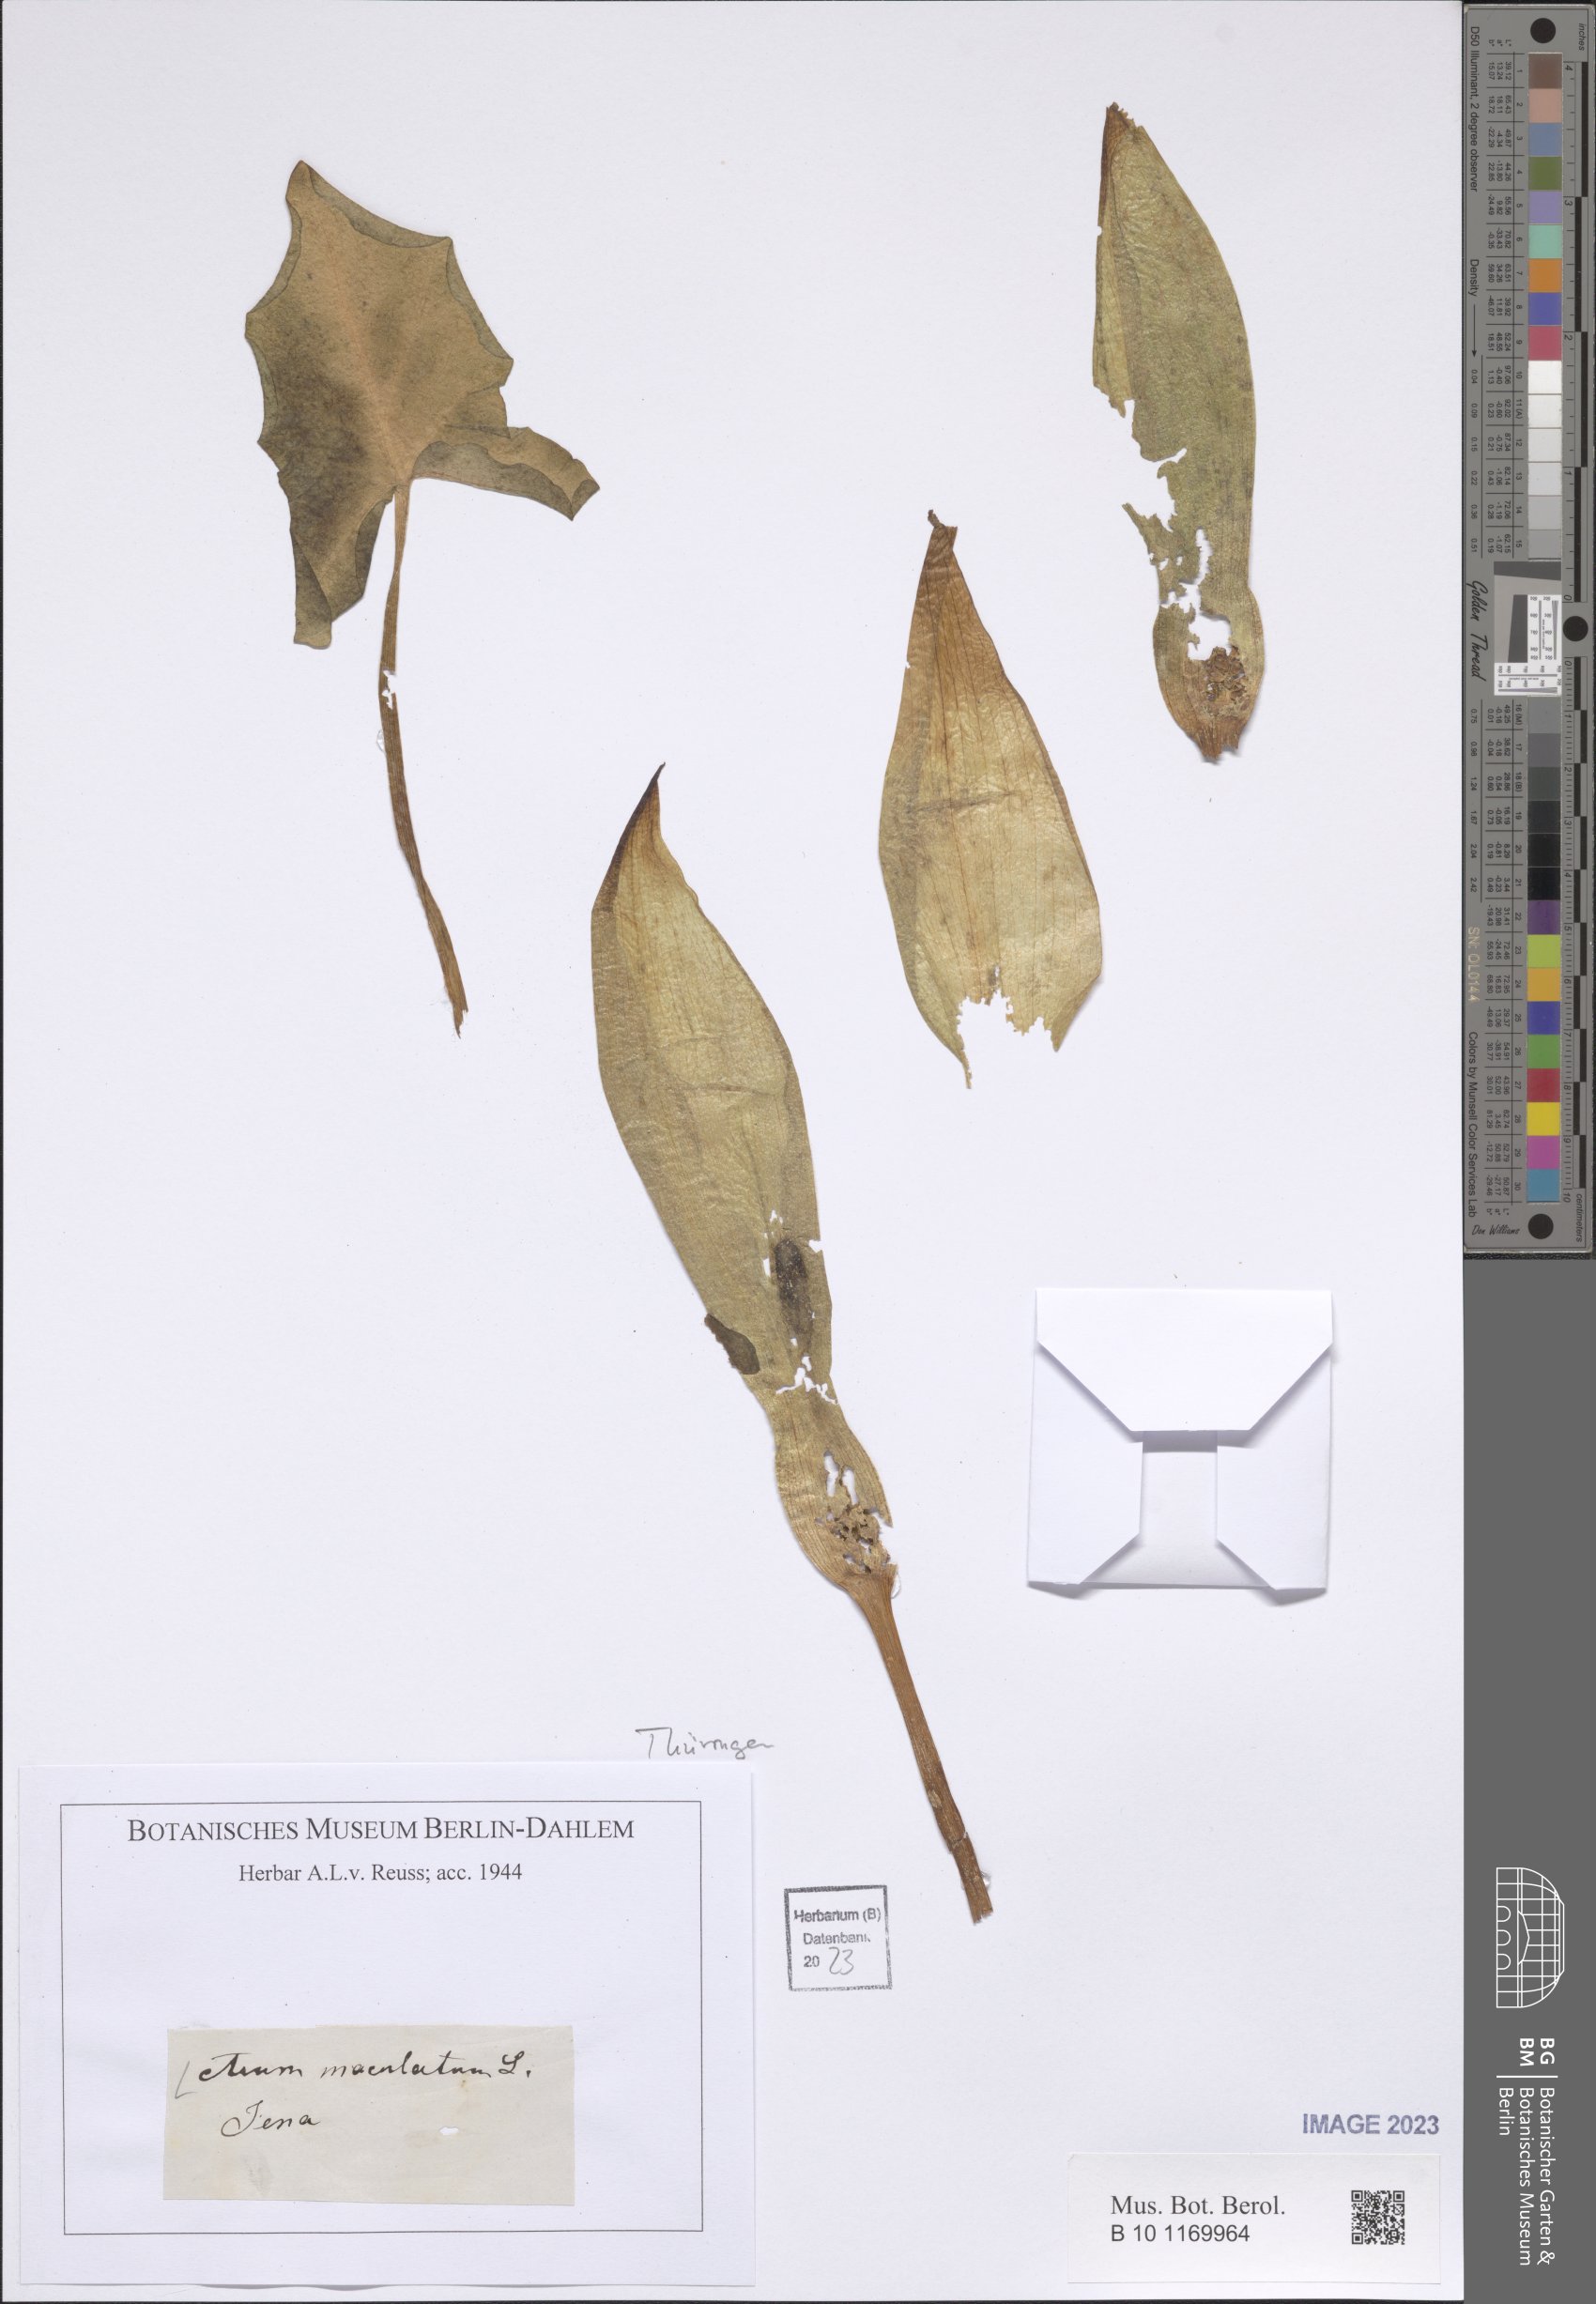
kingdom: Plantae
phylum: Tracheophyta
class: Liliopsida
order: Alismatales
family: Araceae
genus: Arum
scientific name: Arum maculatum
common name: Lords-and-ladies
